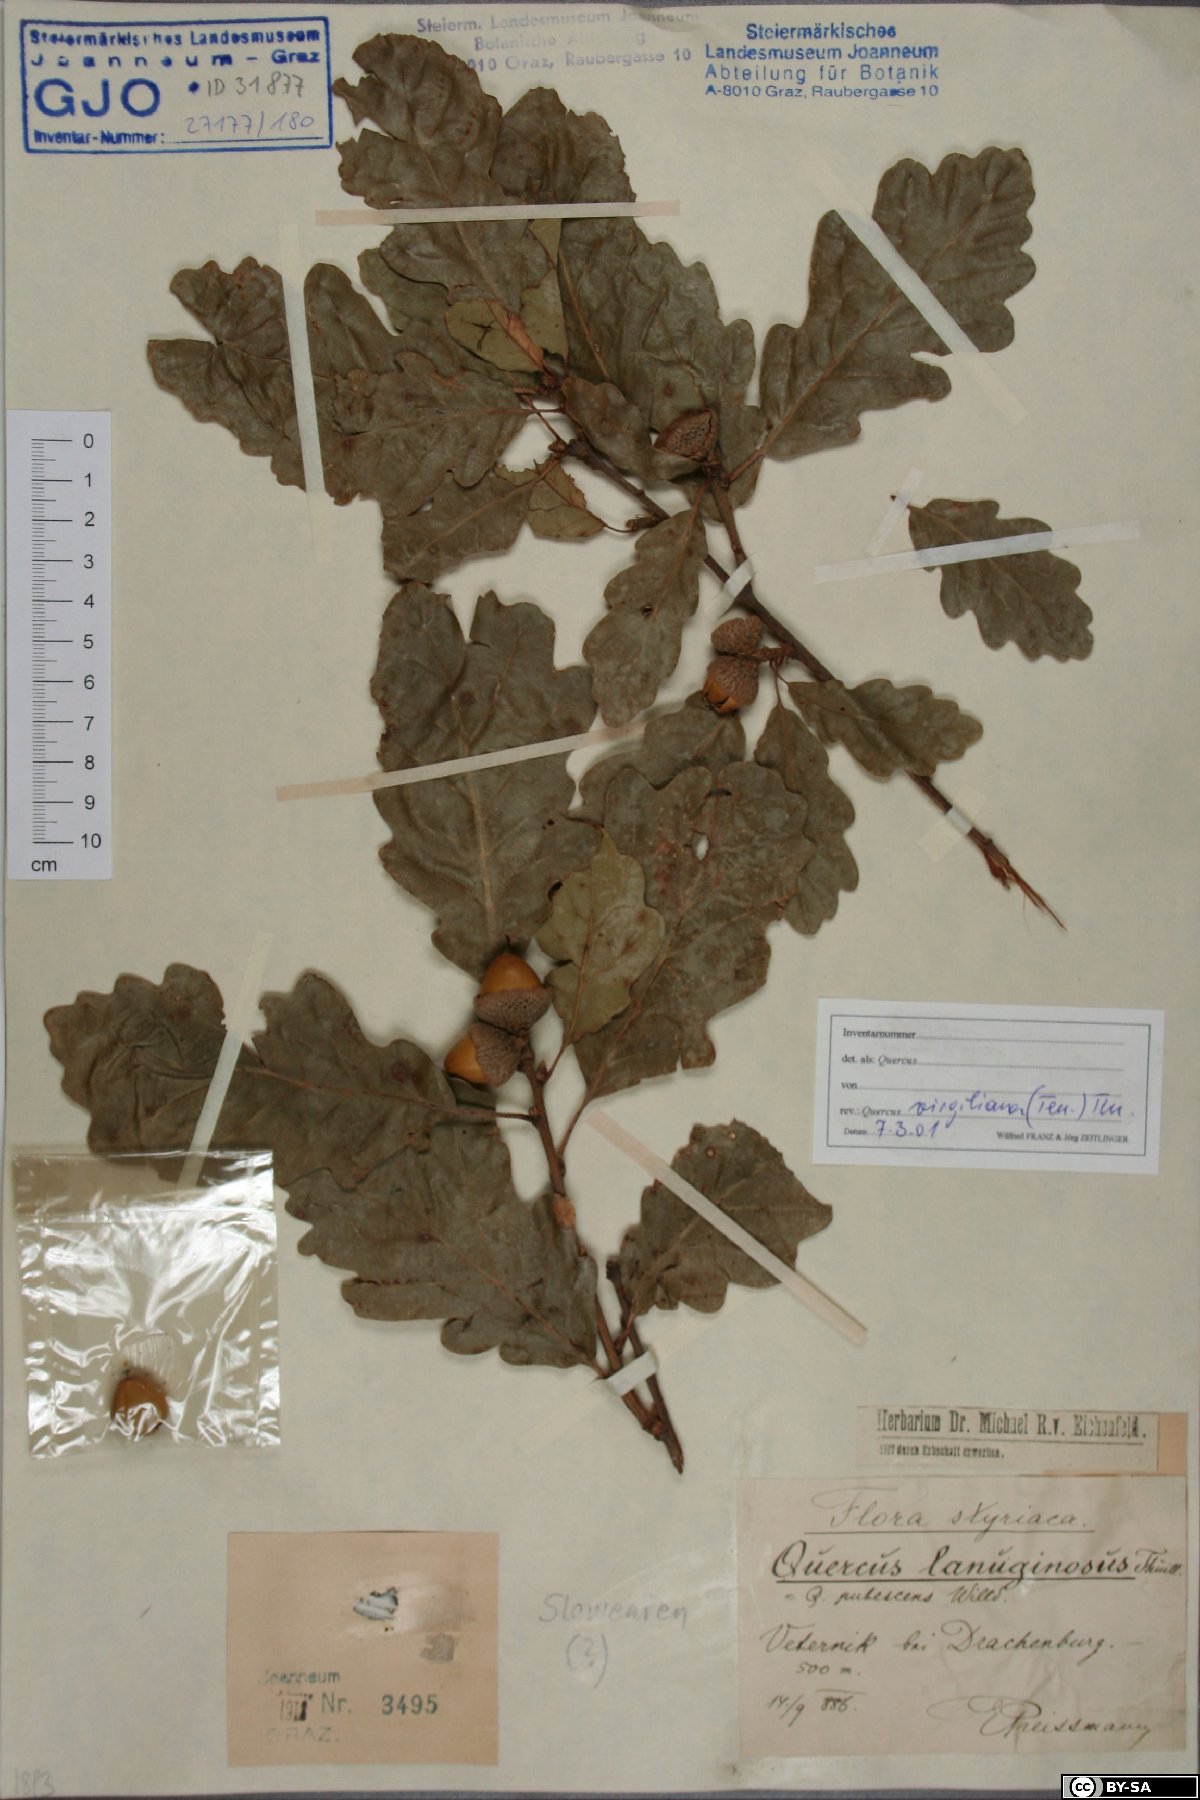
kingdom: Plantae
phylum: Tracheophyta
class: Magnoliopsida
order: Fagales
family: Fagaceae
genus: Quercus
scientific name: Quercus pubescens
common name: Downy oak
